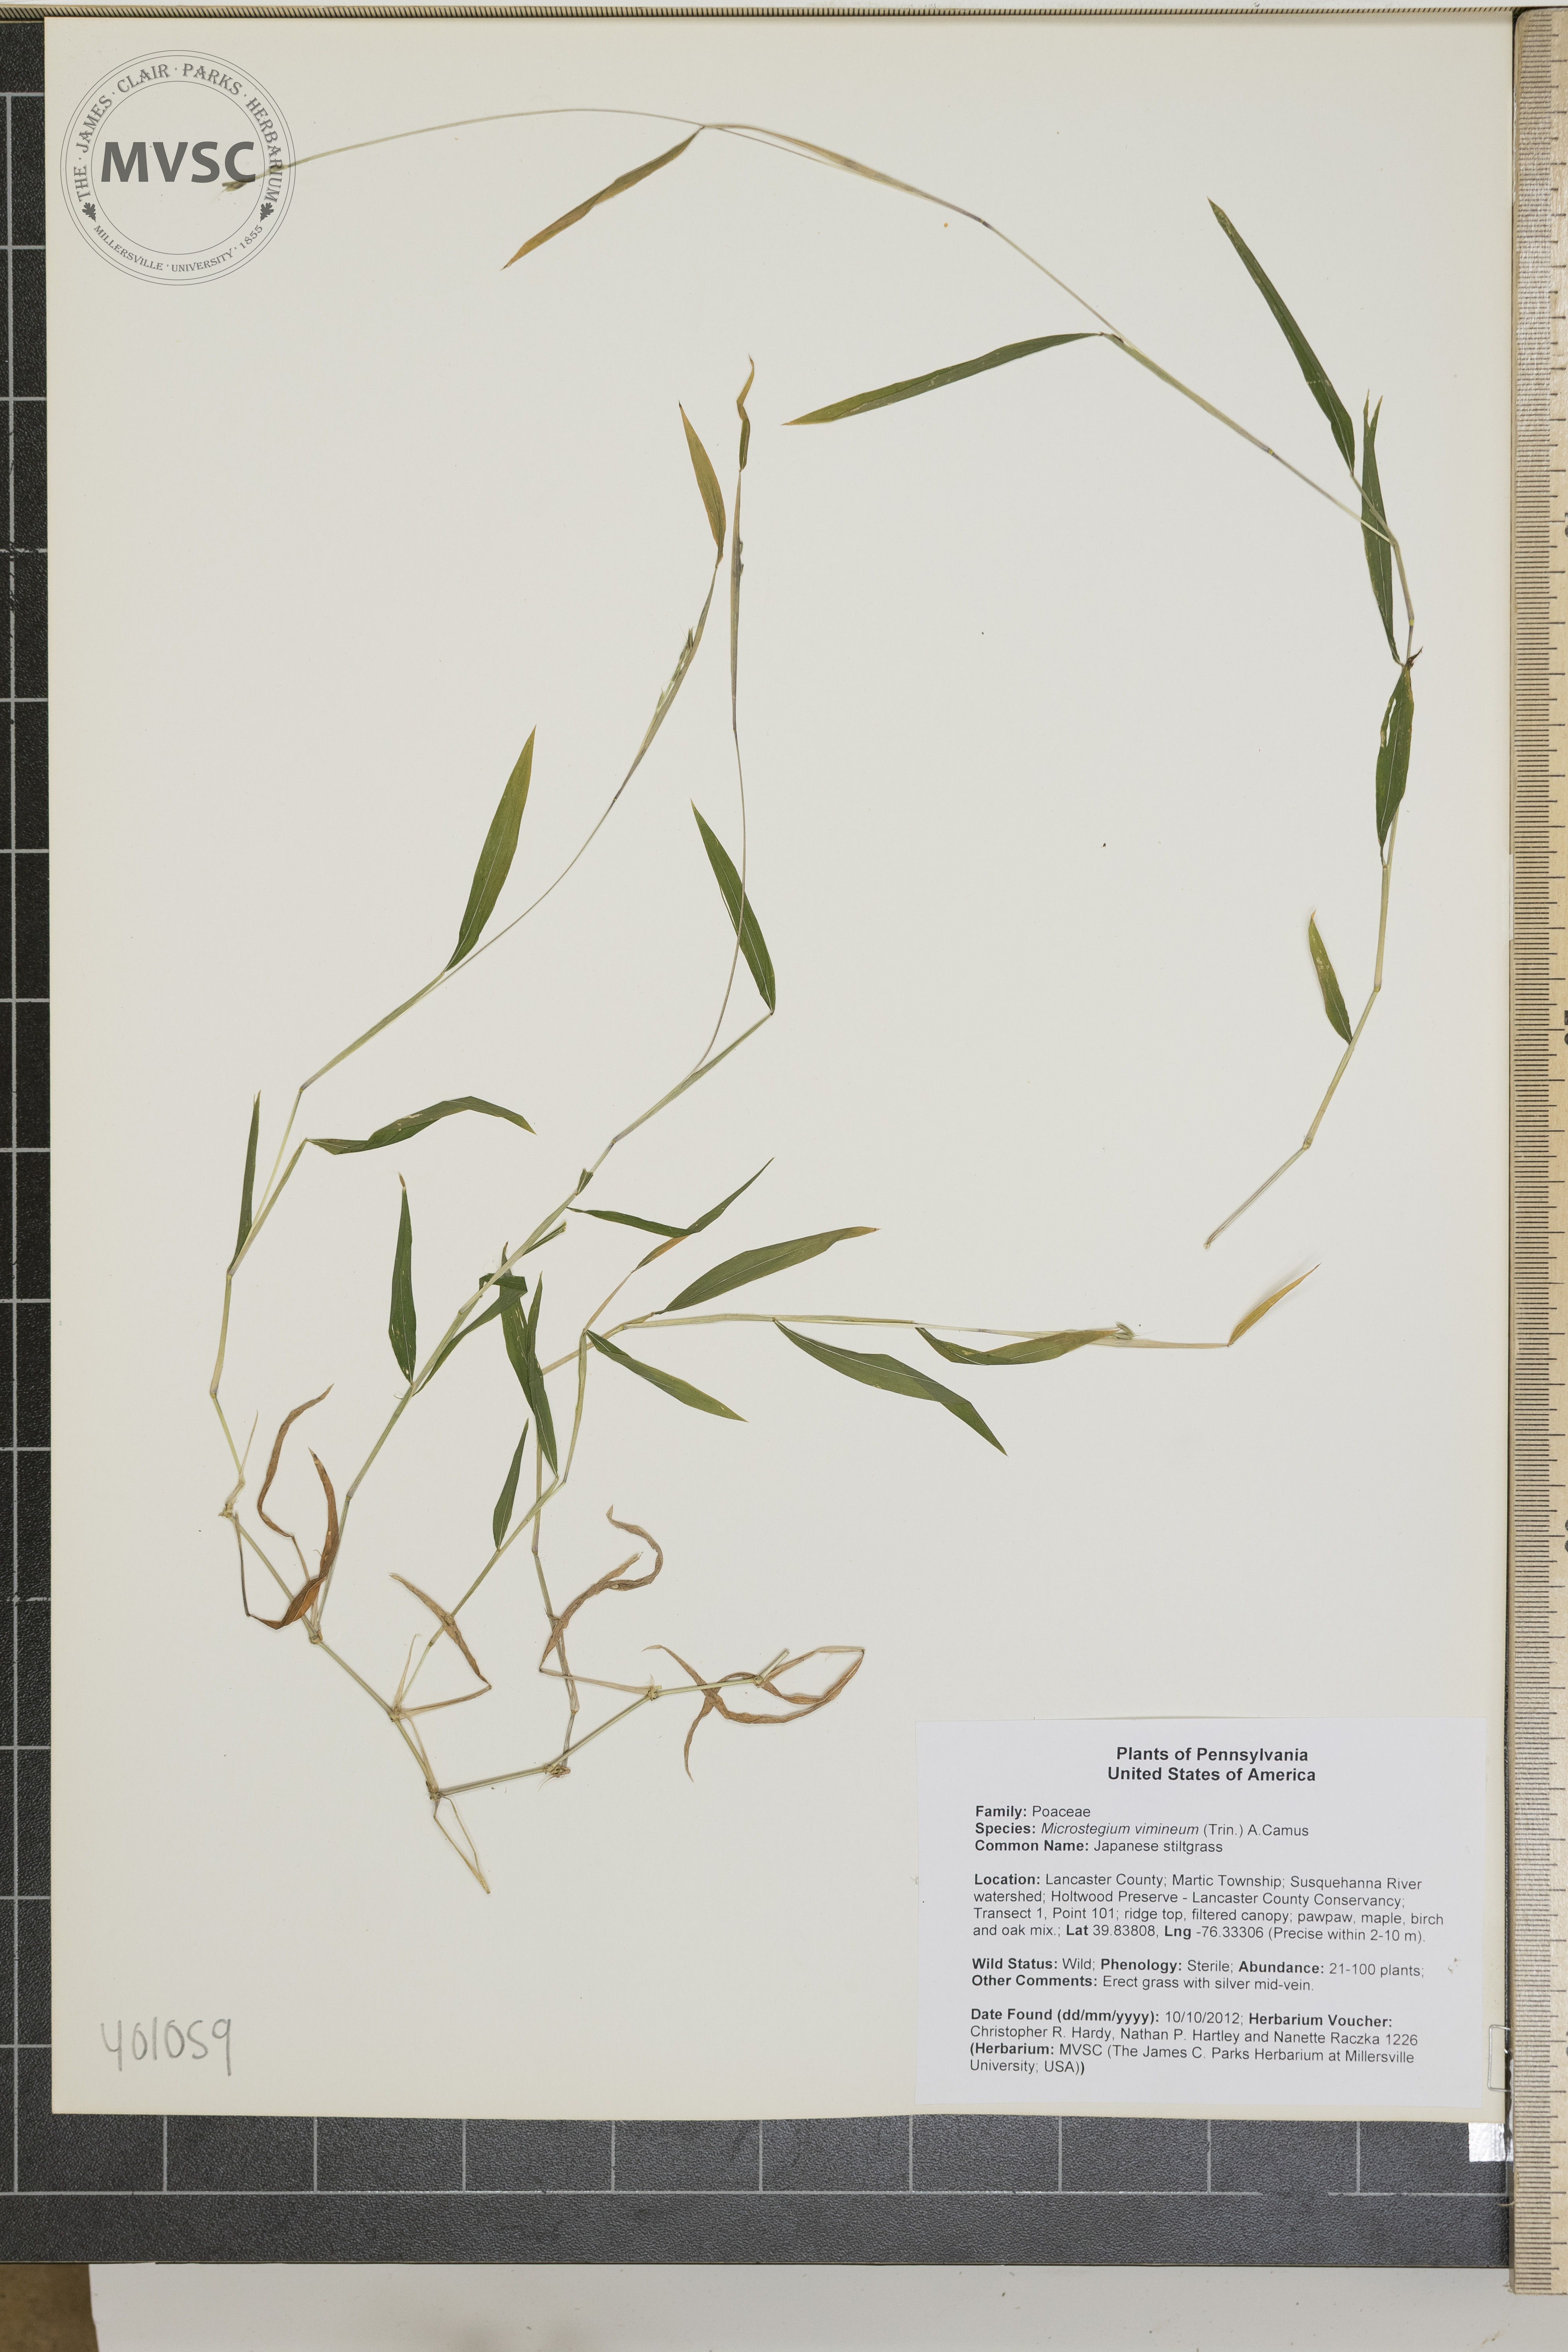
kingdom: Plantae
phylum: Tracheophyta
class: Liliopsida
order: Poales
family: Poaceae
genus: Microstegium
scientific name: Microstegium vimineum
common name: Japanese stiltgrass
